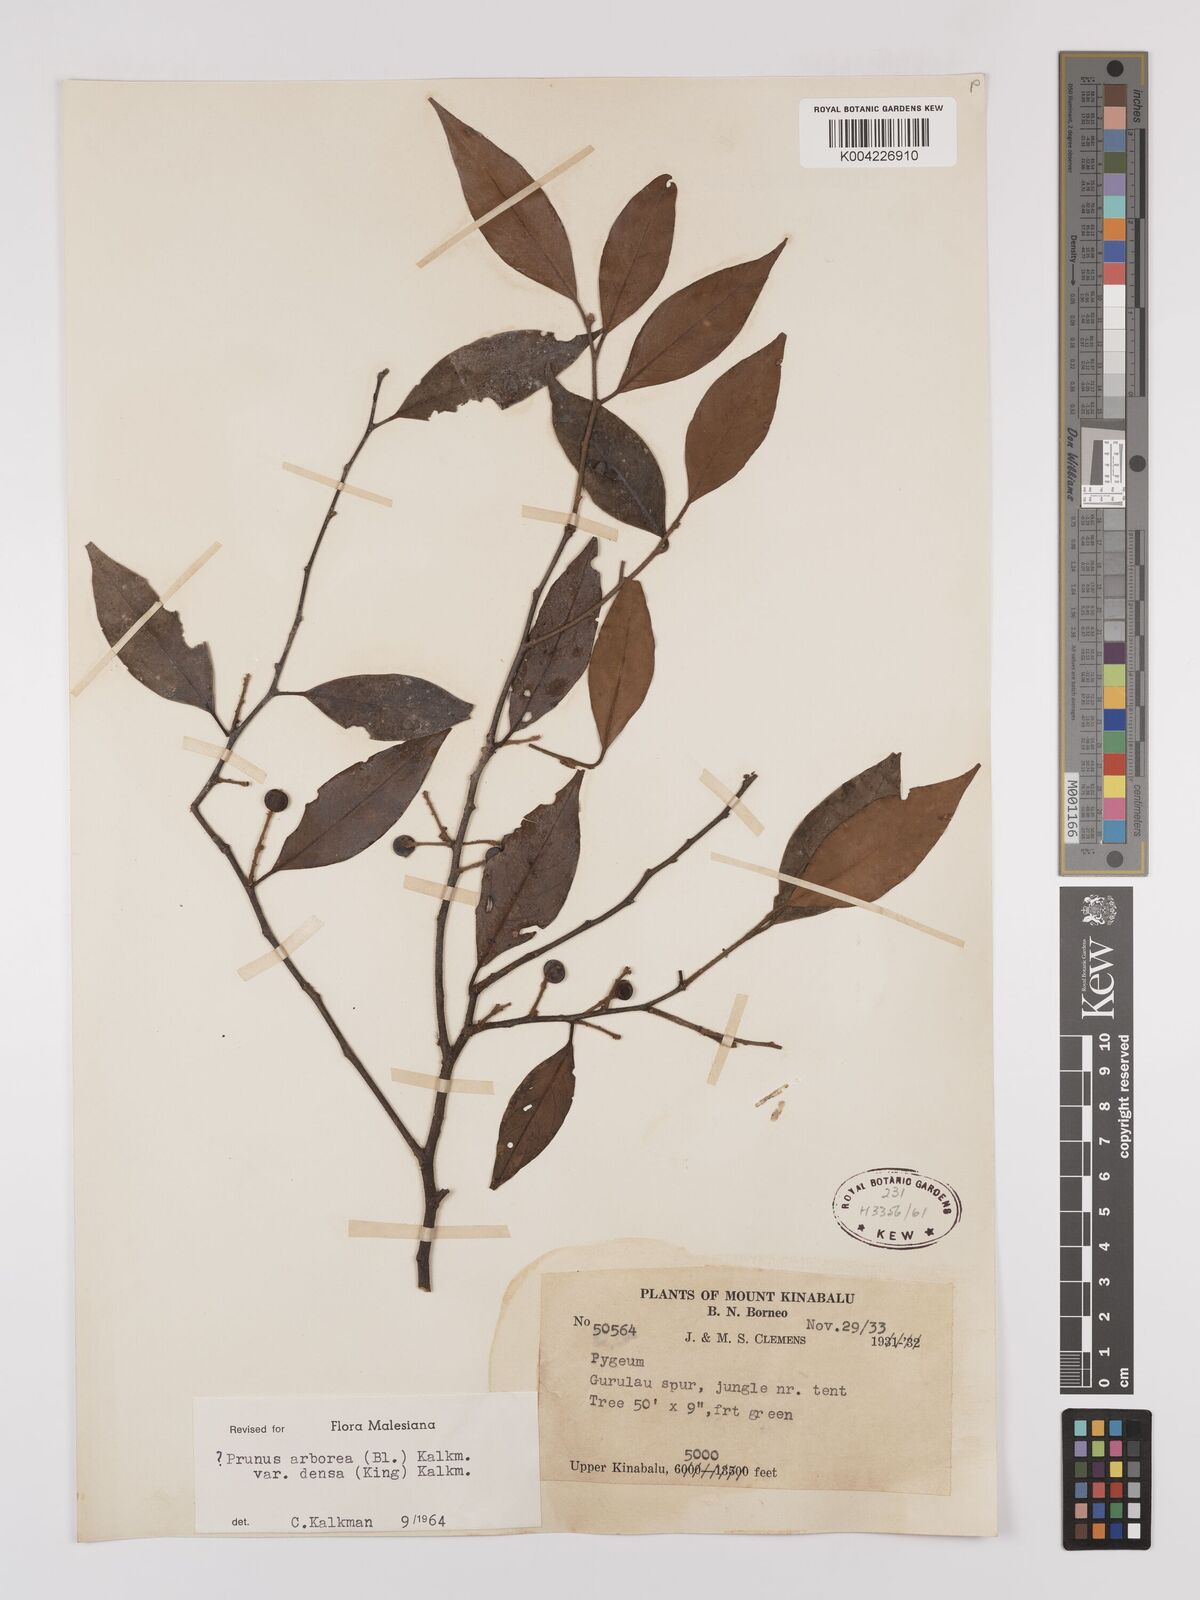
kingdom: Plantae
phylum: Tracheophyta
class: Magnoliopsida
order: Rosales
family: Rosaceae
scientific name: Rosaceae
